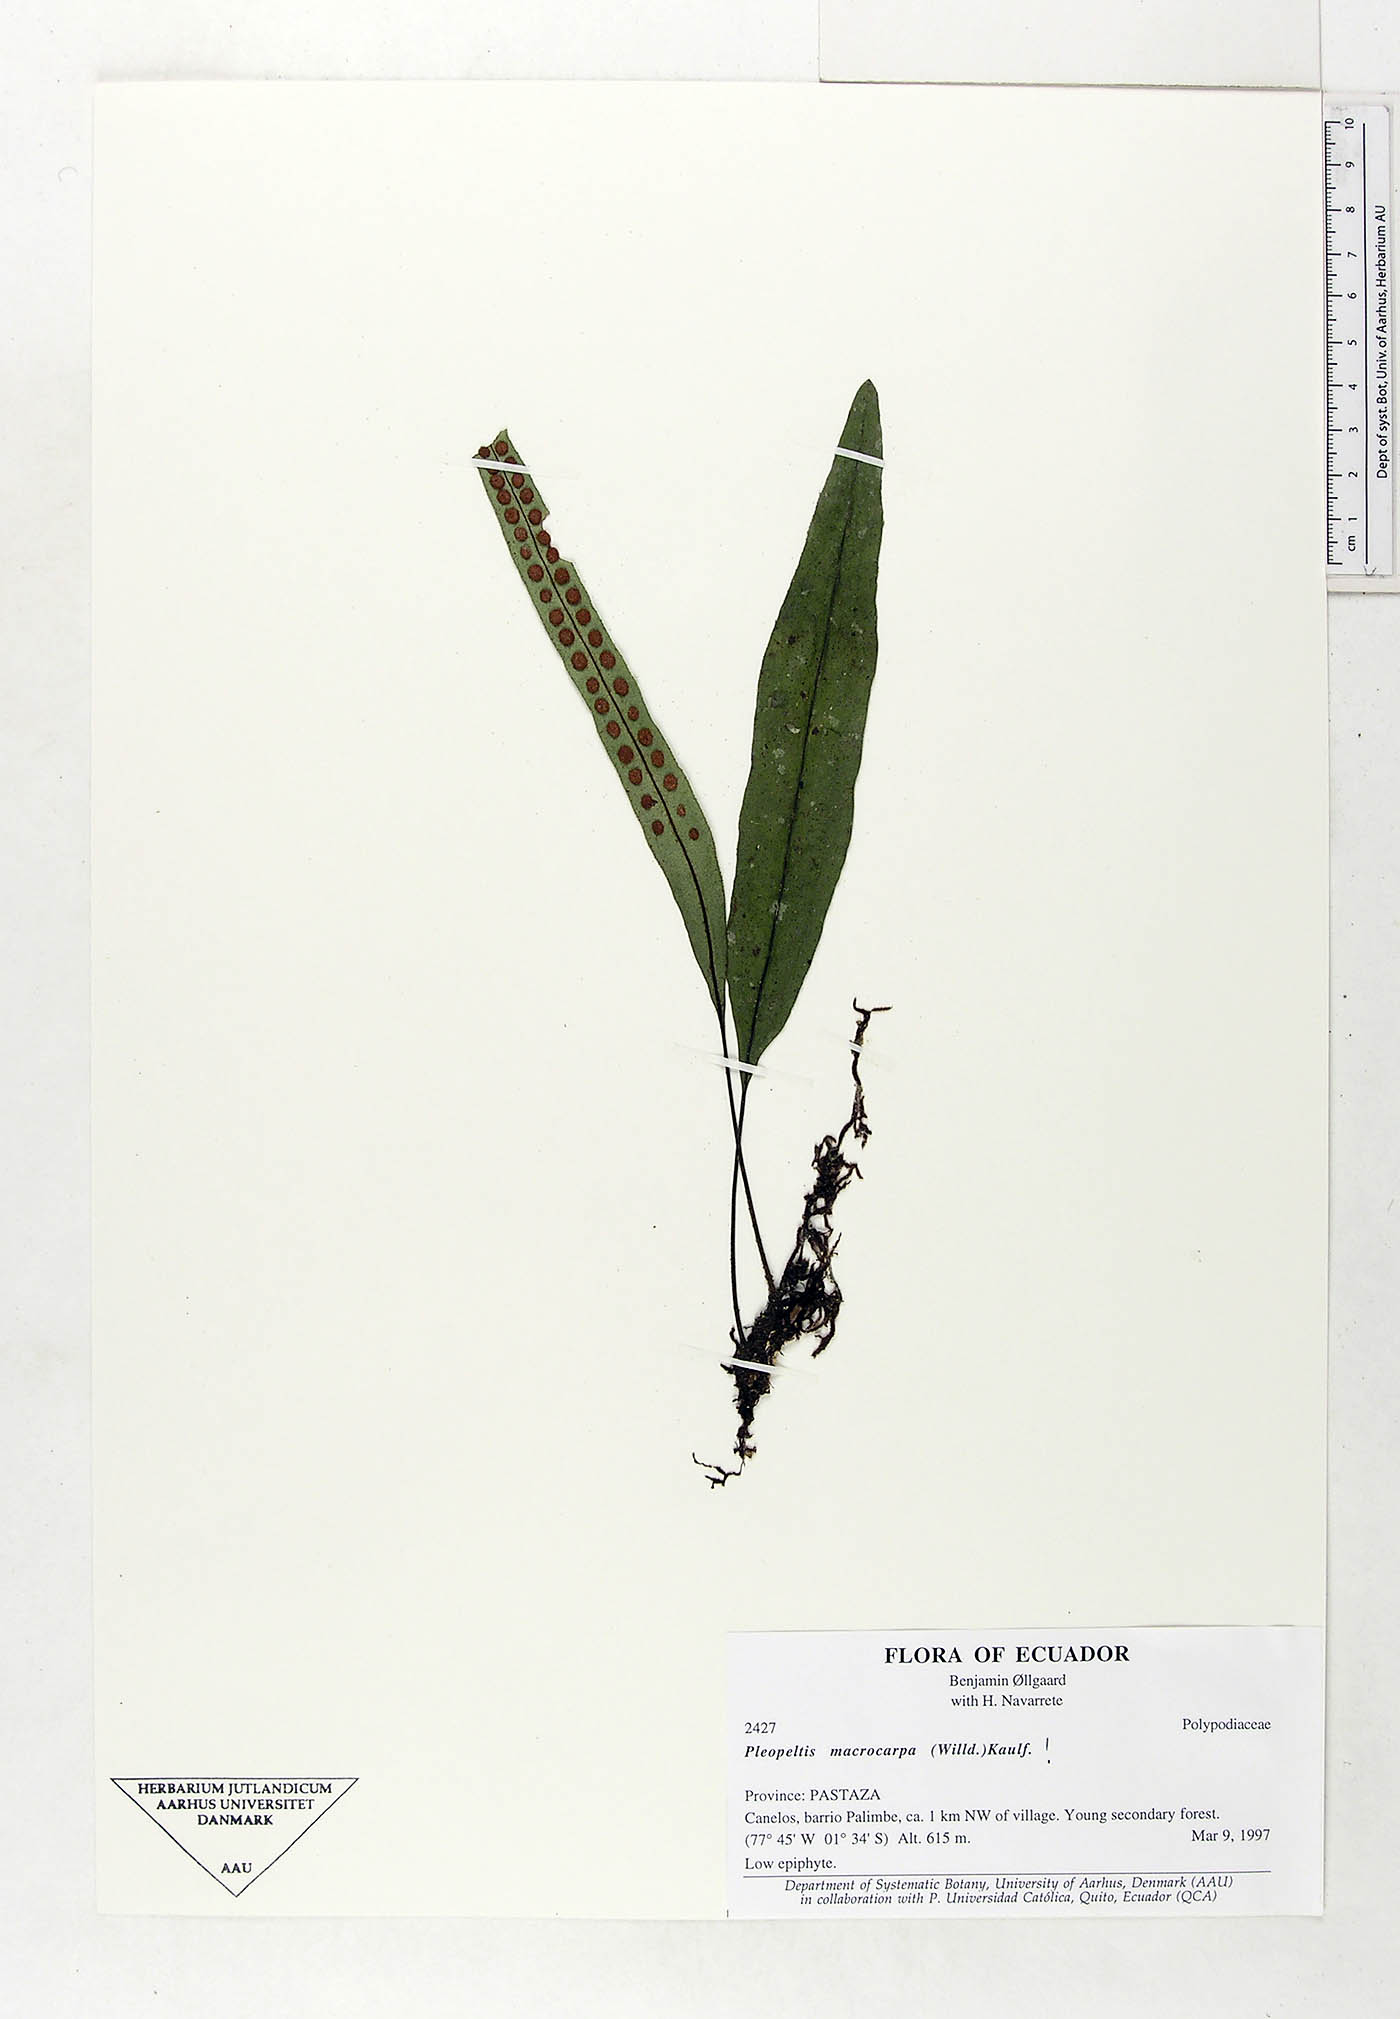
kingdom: Plantae
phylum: Tracheophyta
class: Polypodiopsida
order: Polypodiales
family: Polypodiaceae
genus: Pleopeltis
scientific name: Pleopeltis macrocarpa
